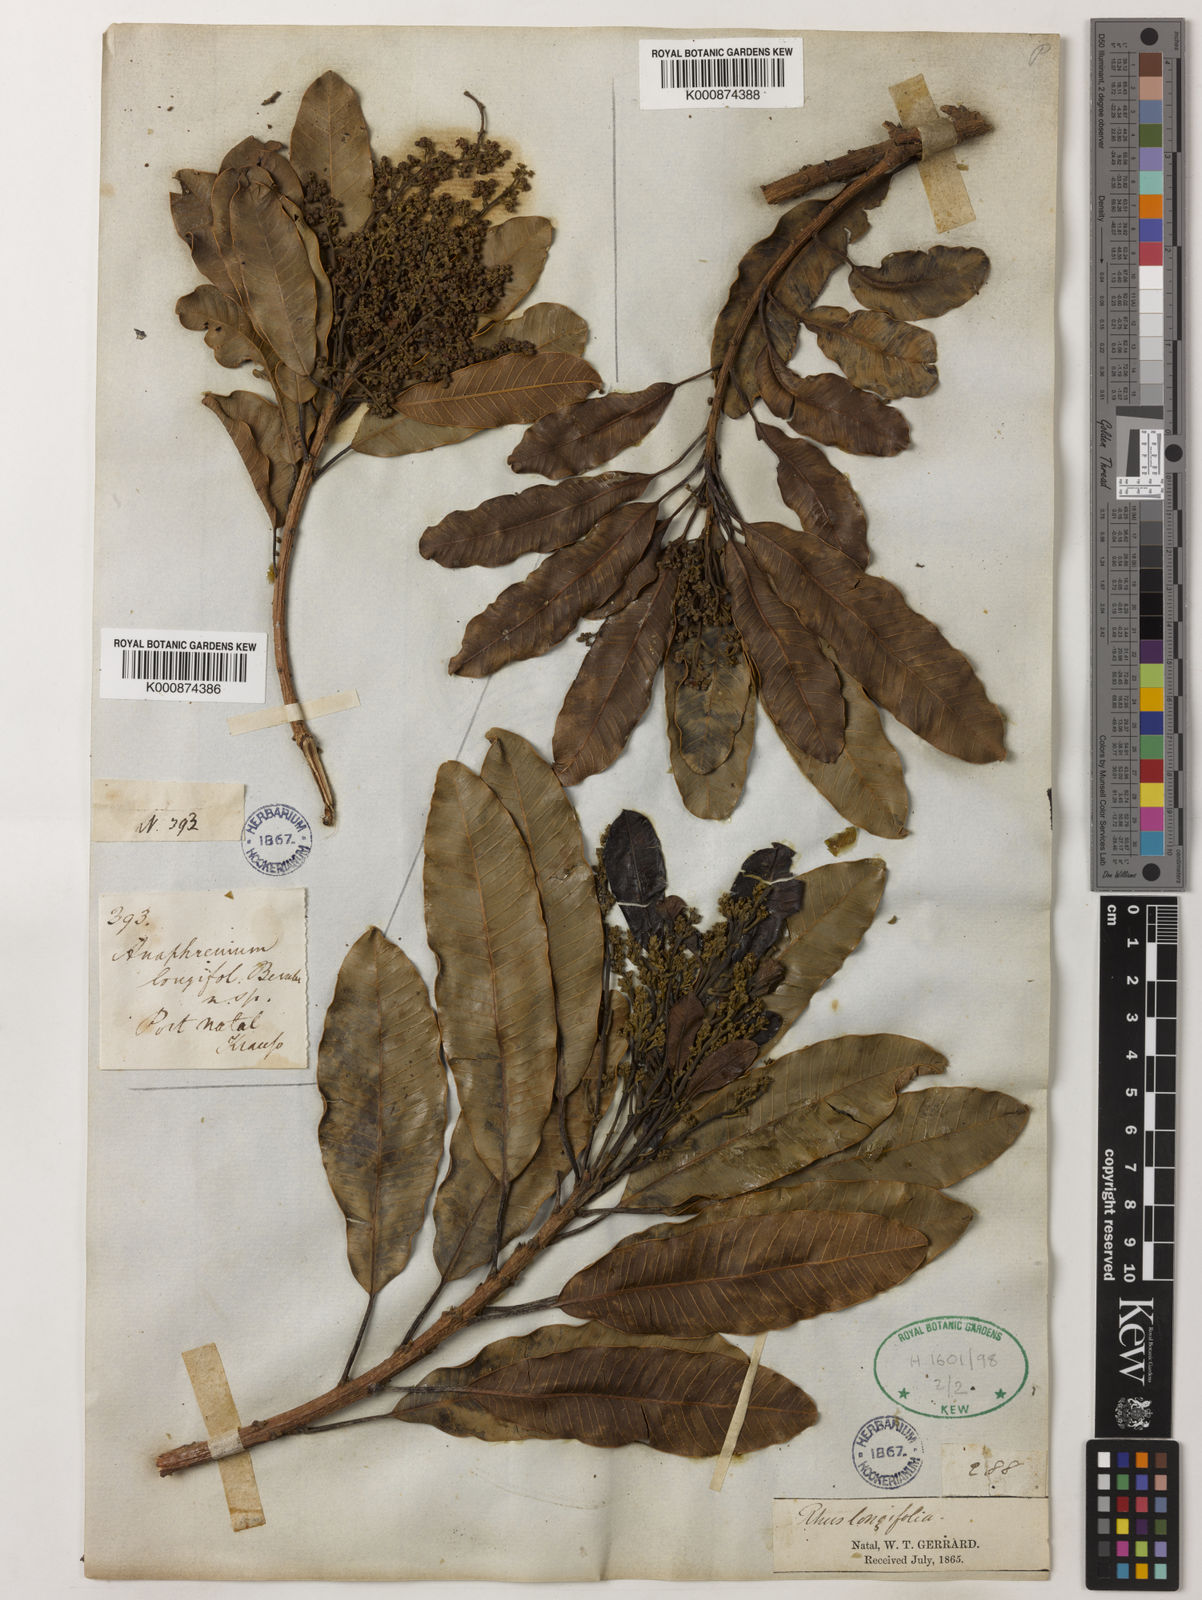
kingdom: Plantae
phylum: Tracheophyta
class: Magnoliopsida
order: Sapindales
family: Anacardiaceae
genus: Protorhus
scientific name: Protorhus longifolia
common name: Red-beech
